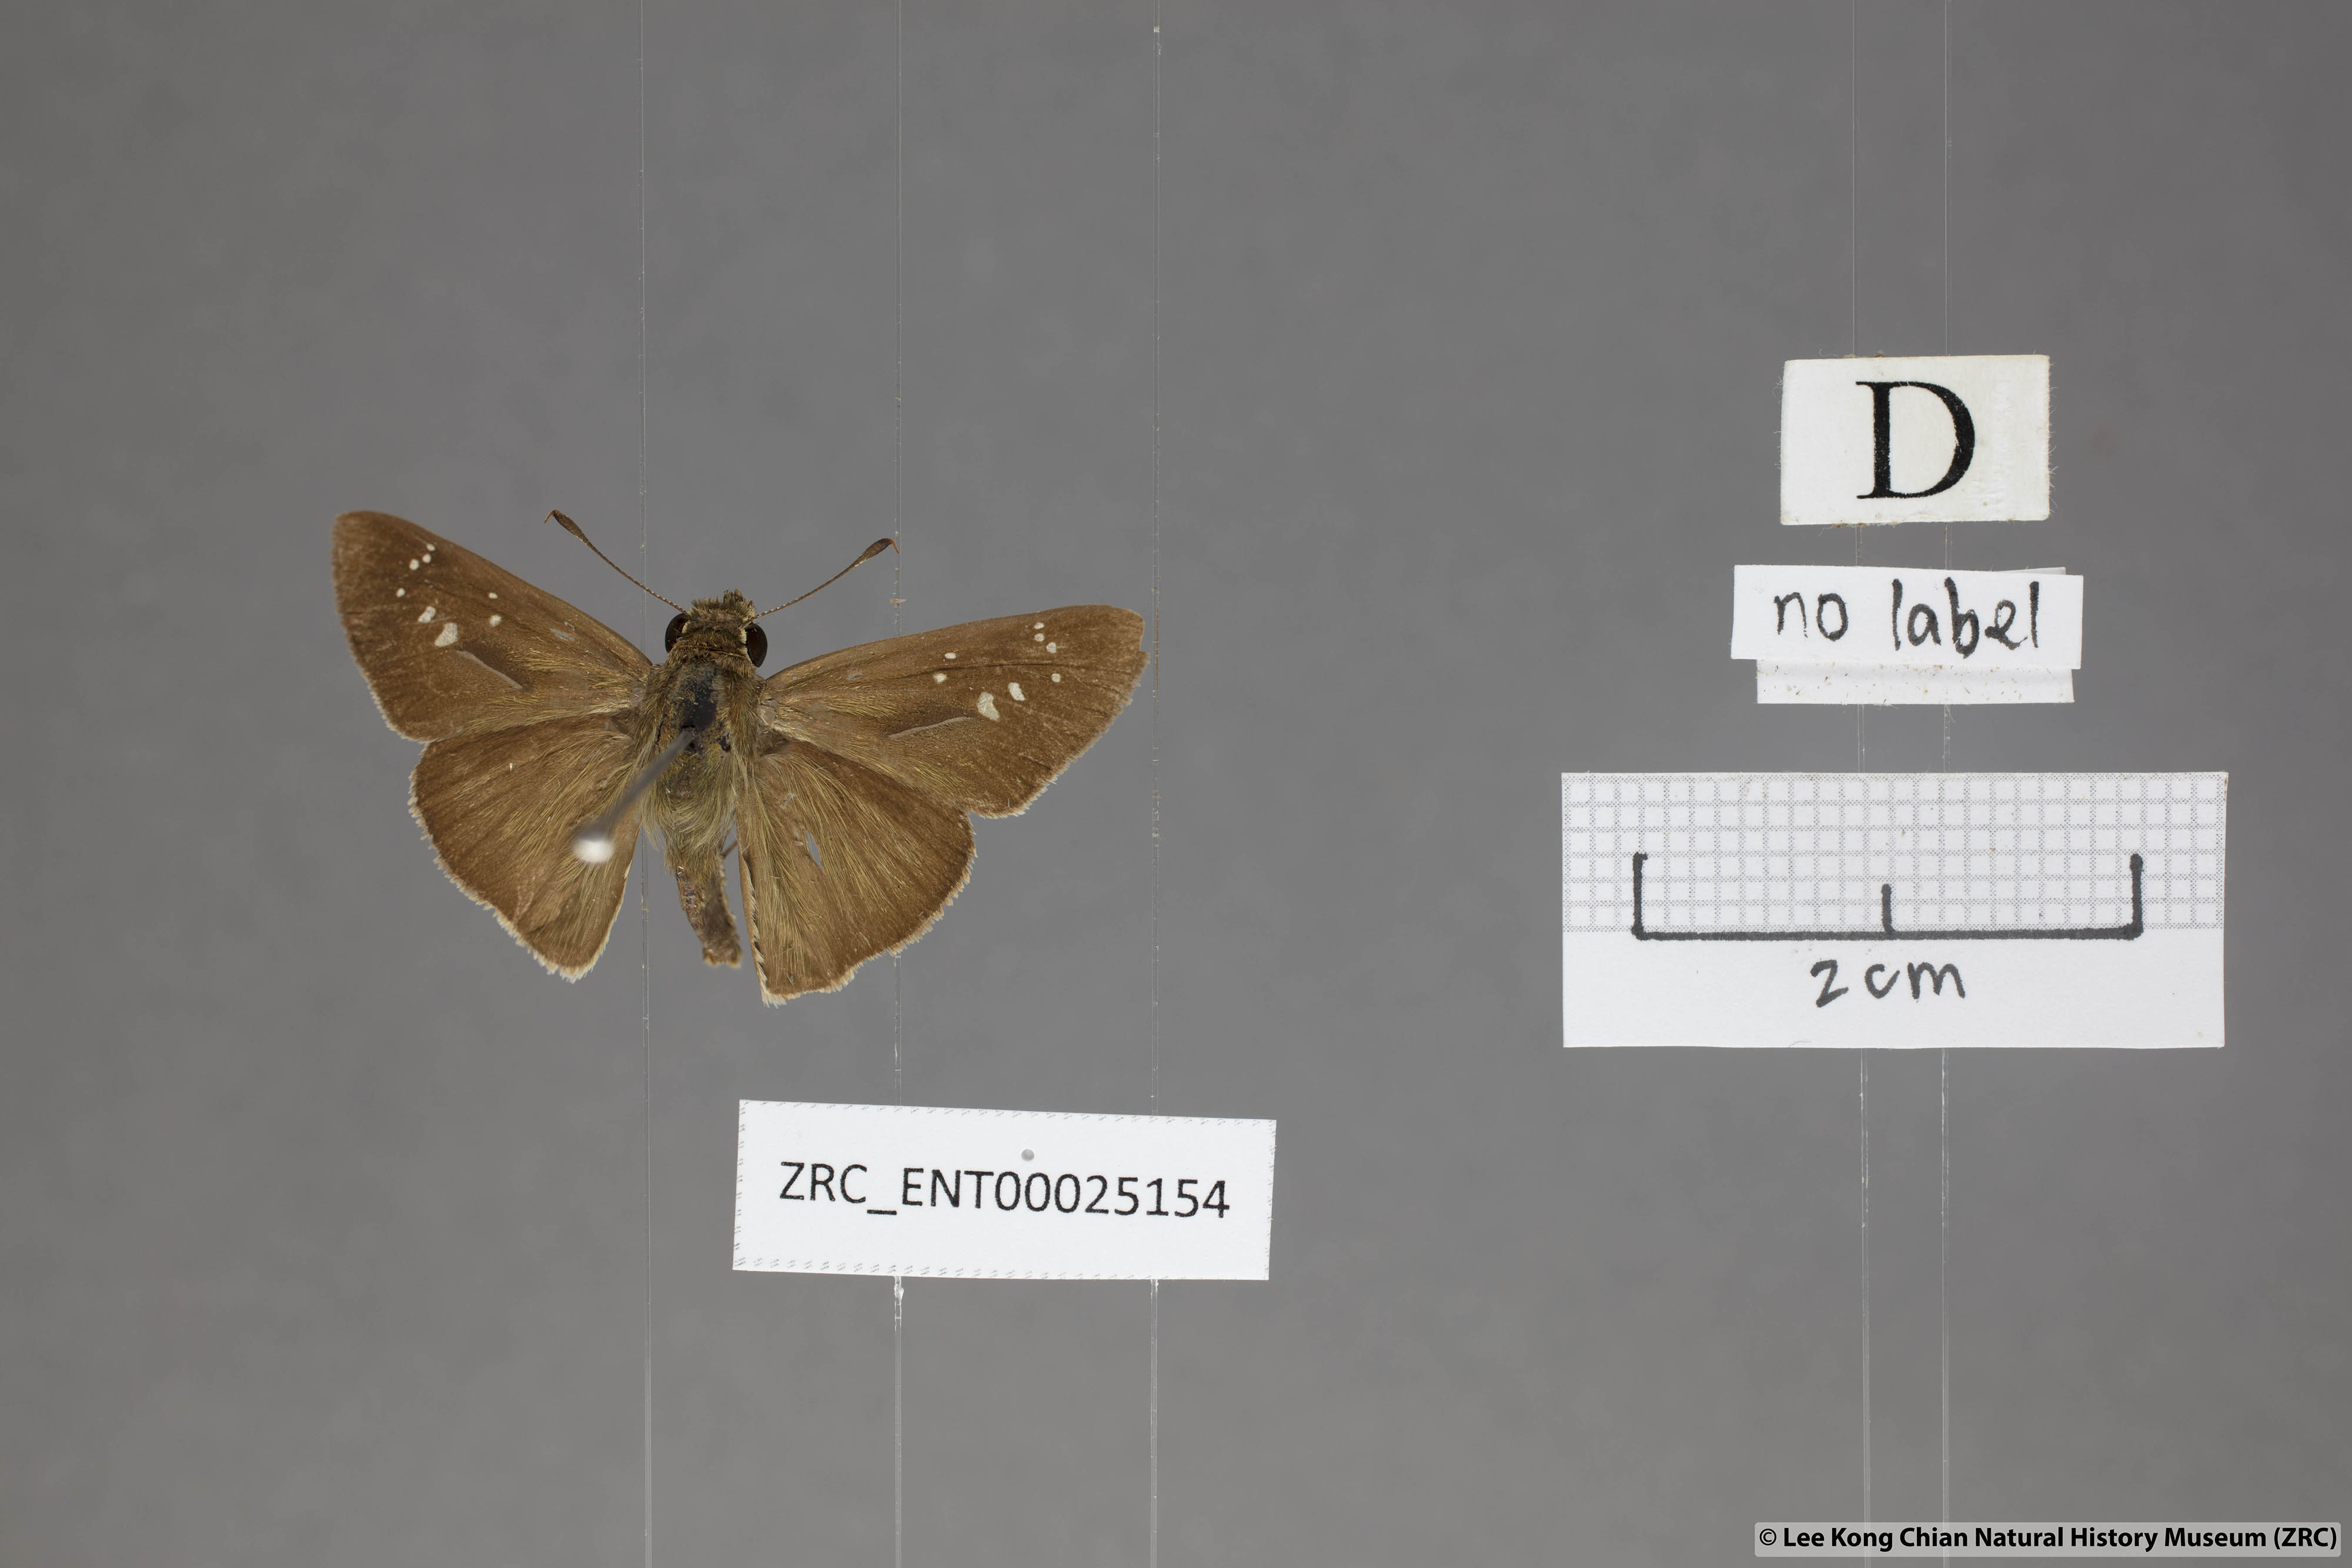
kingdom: Animalia
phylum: Arthropoda
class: Insecta
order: Lepidoptera
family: Hesperiidae
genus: Pelopidas
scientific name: Pelopidas mathias
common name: Black-branded swift
